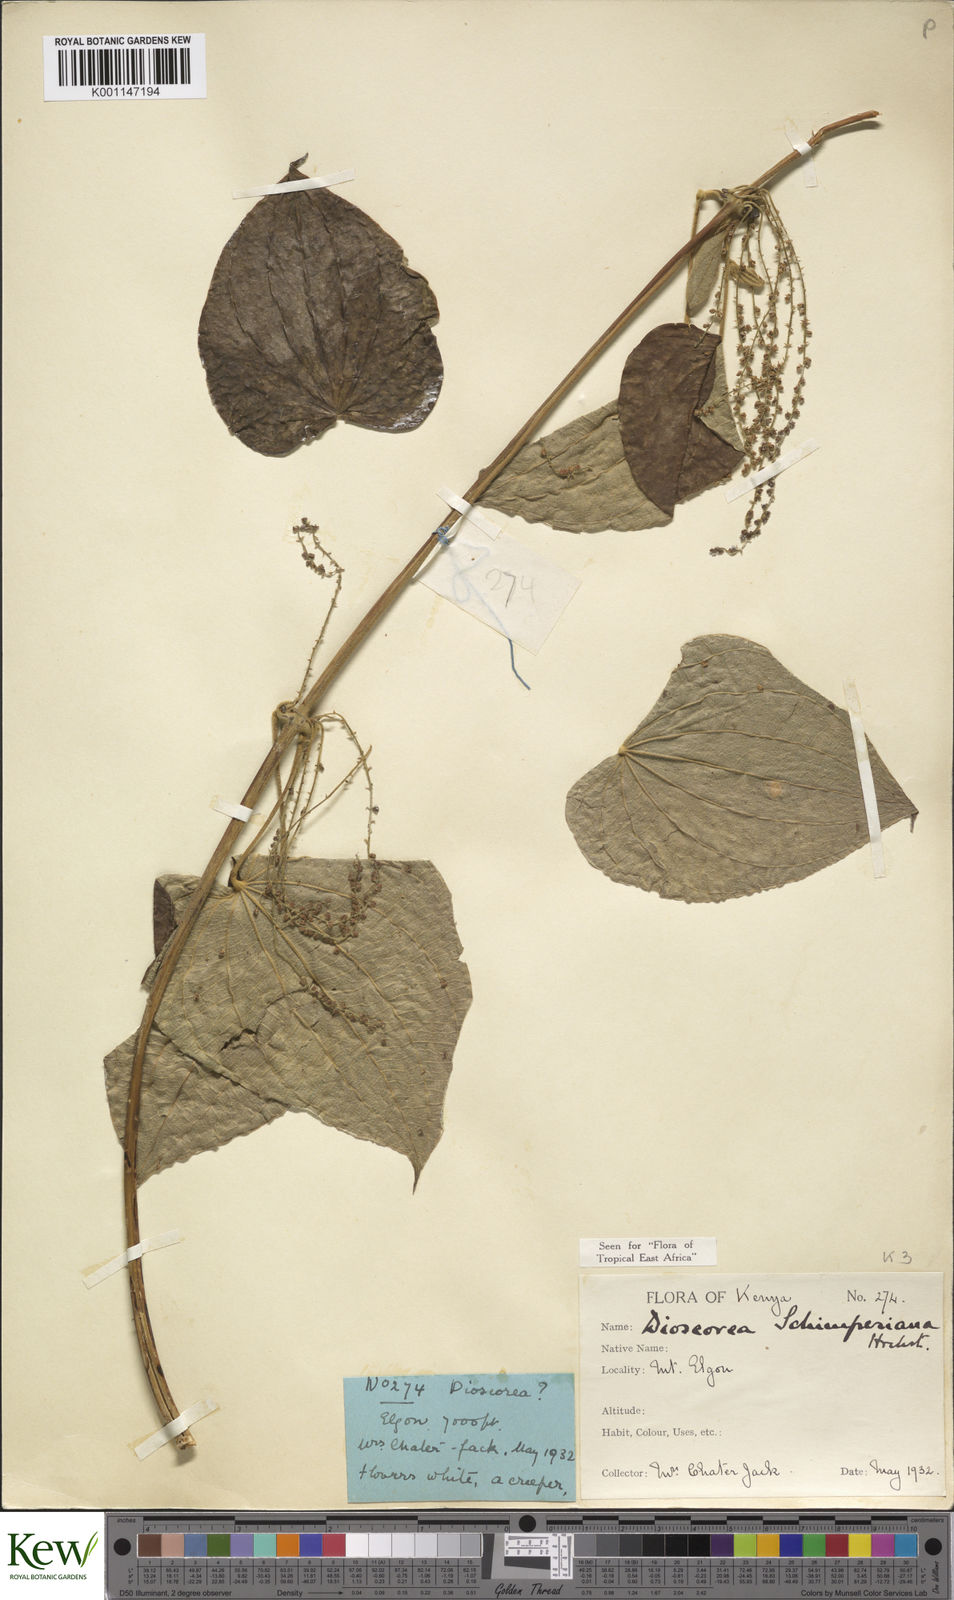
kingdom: Plantae
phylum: Tracheophyta
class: Liliopsida
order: Dioscoreales
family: Dioscoreaceae
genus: Dioscorea
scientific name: Dioscorea schimperiana
